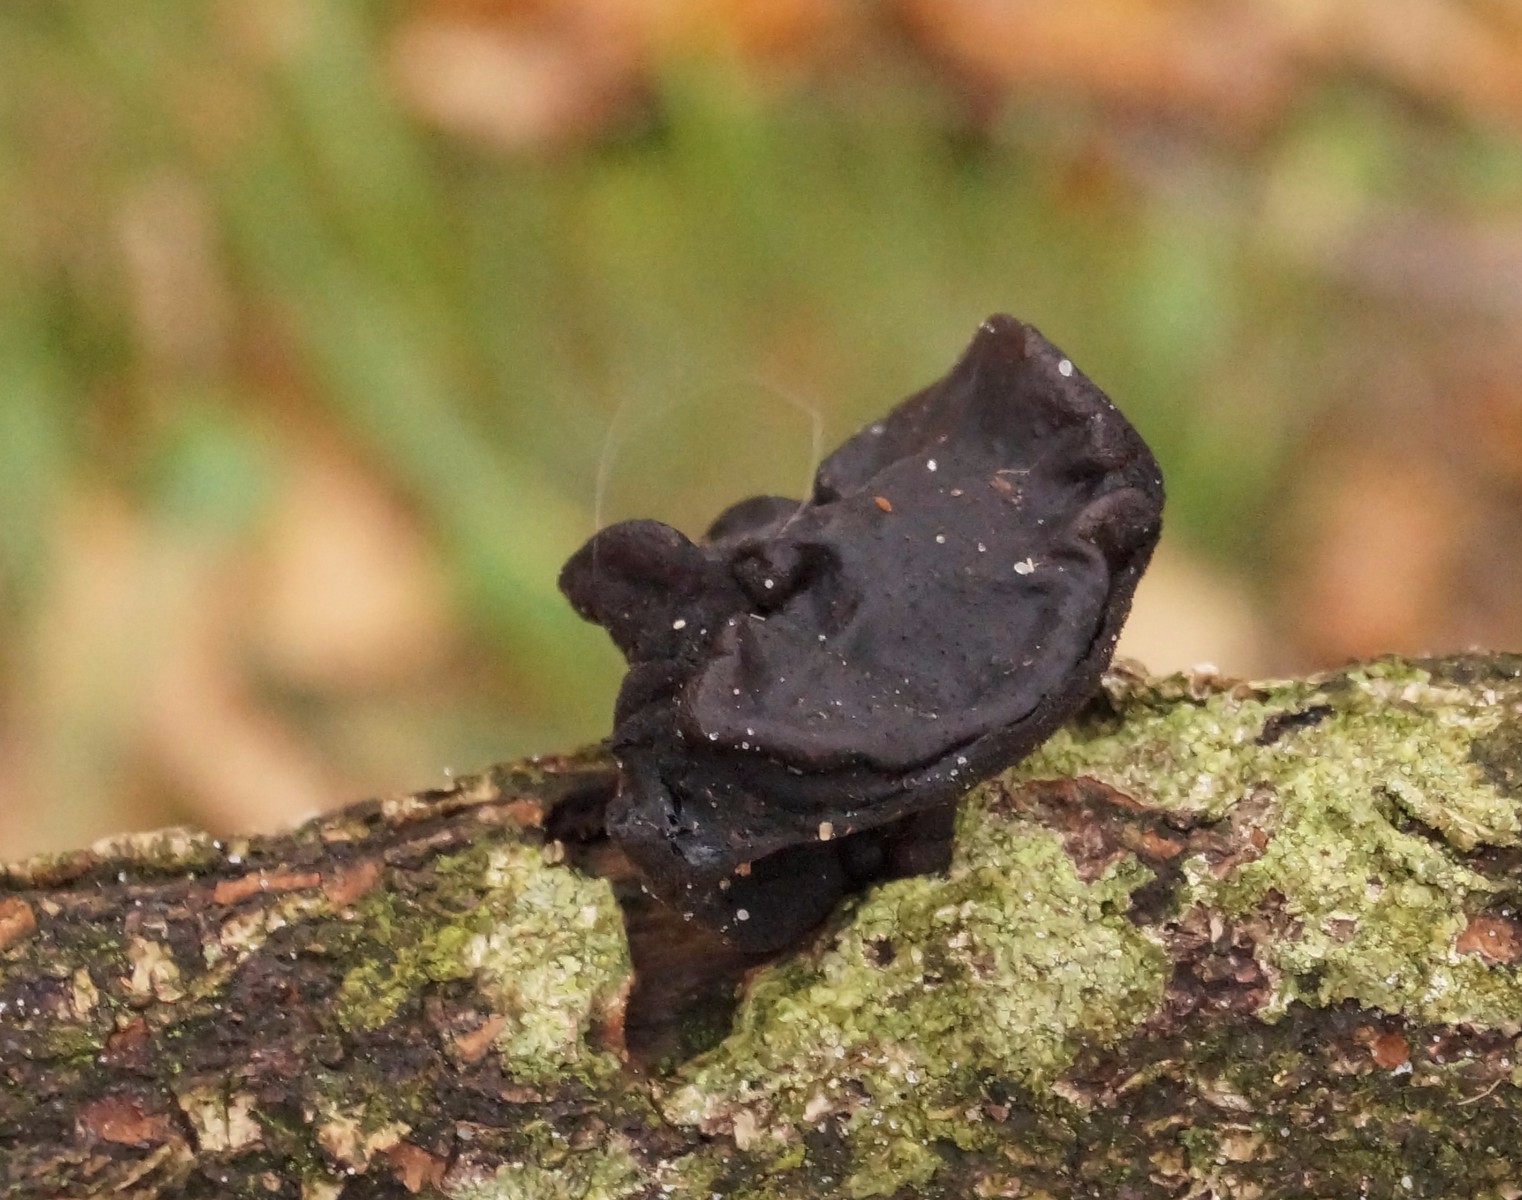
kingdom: Fungi
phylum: Basidiomycota
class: Agaricomycetes
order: Auriculariales
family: Auriculariaceae
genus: Exidia
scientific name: Exidia glandulosa
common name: ege-bævretop
